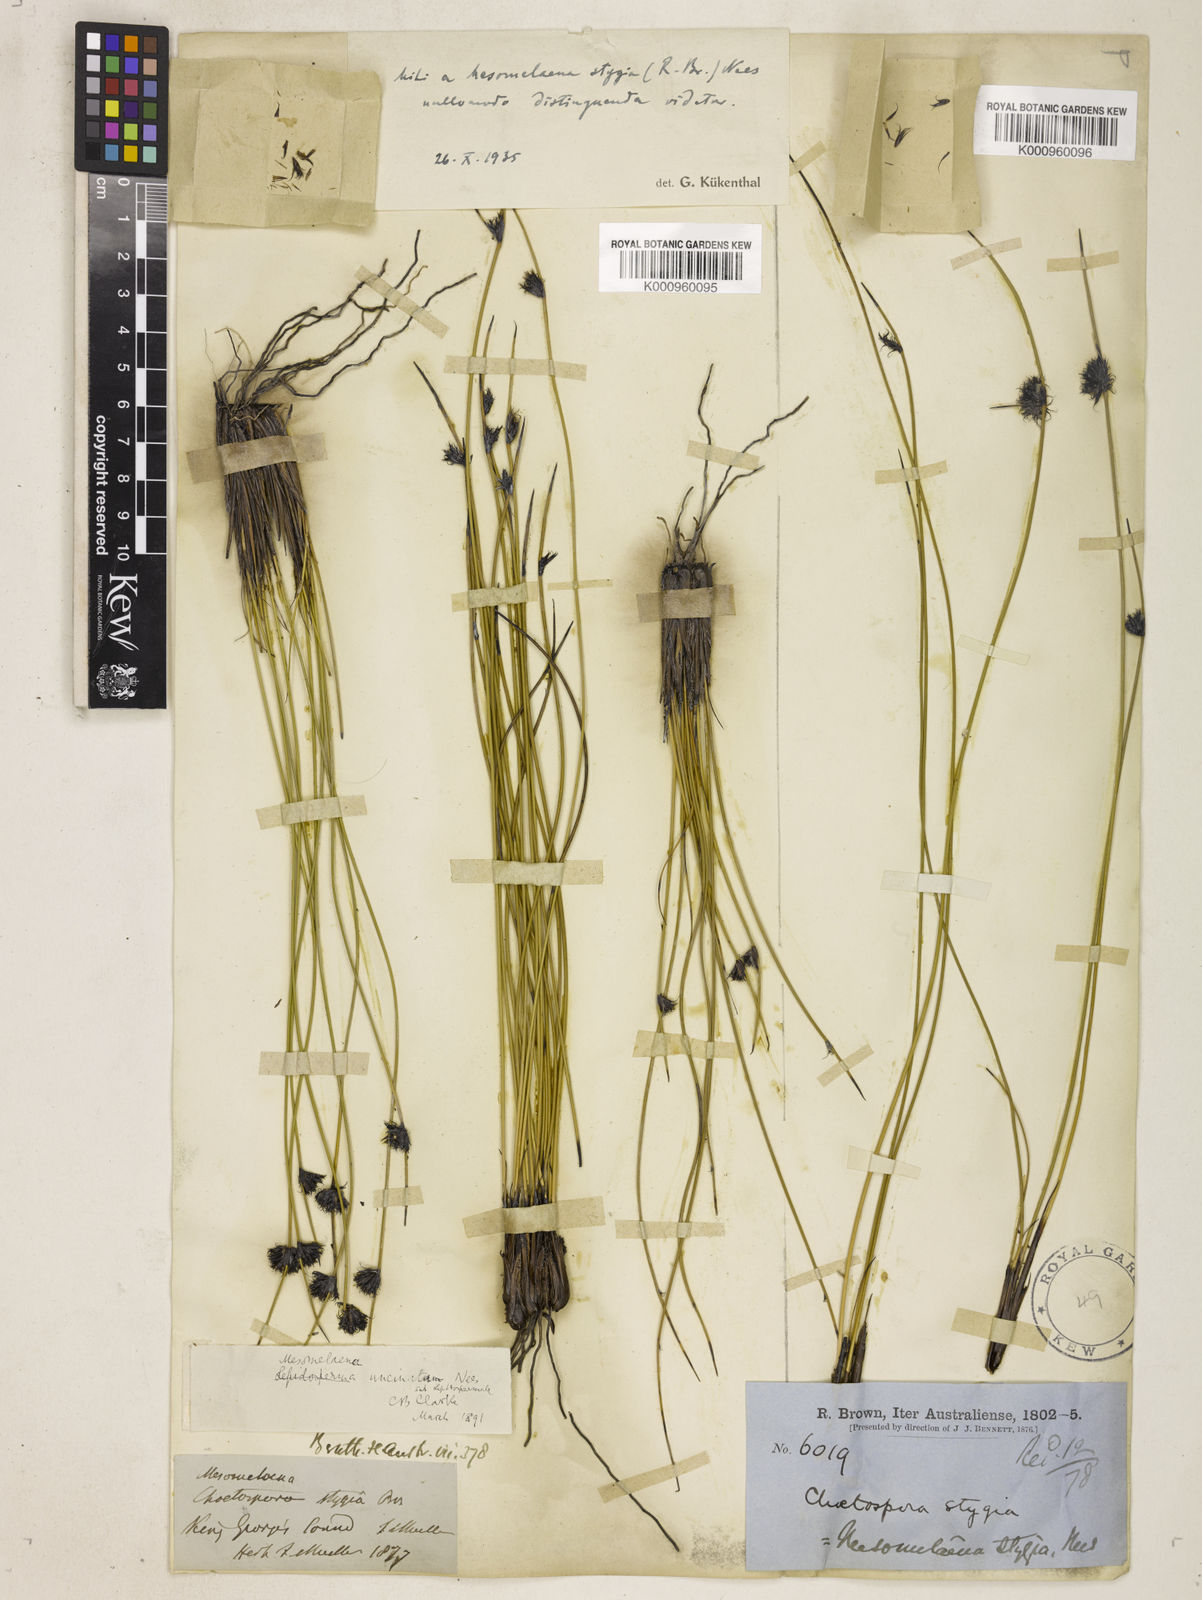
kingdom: Plantae
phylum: Tracheophyta
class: Liliopsida
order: Poales
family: Cyperaceae
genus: Mesomelaena
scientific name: Mesomelaena stygia
